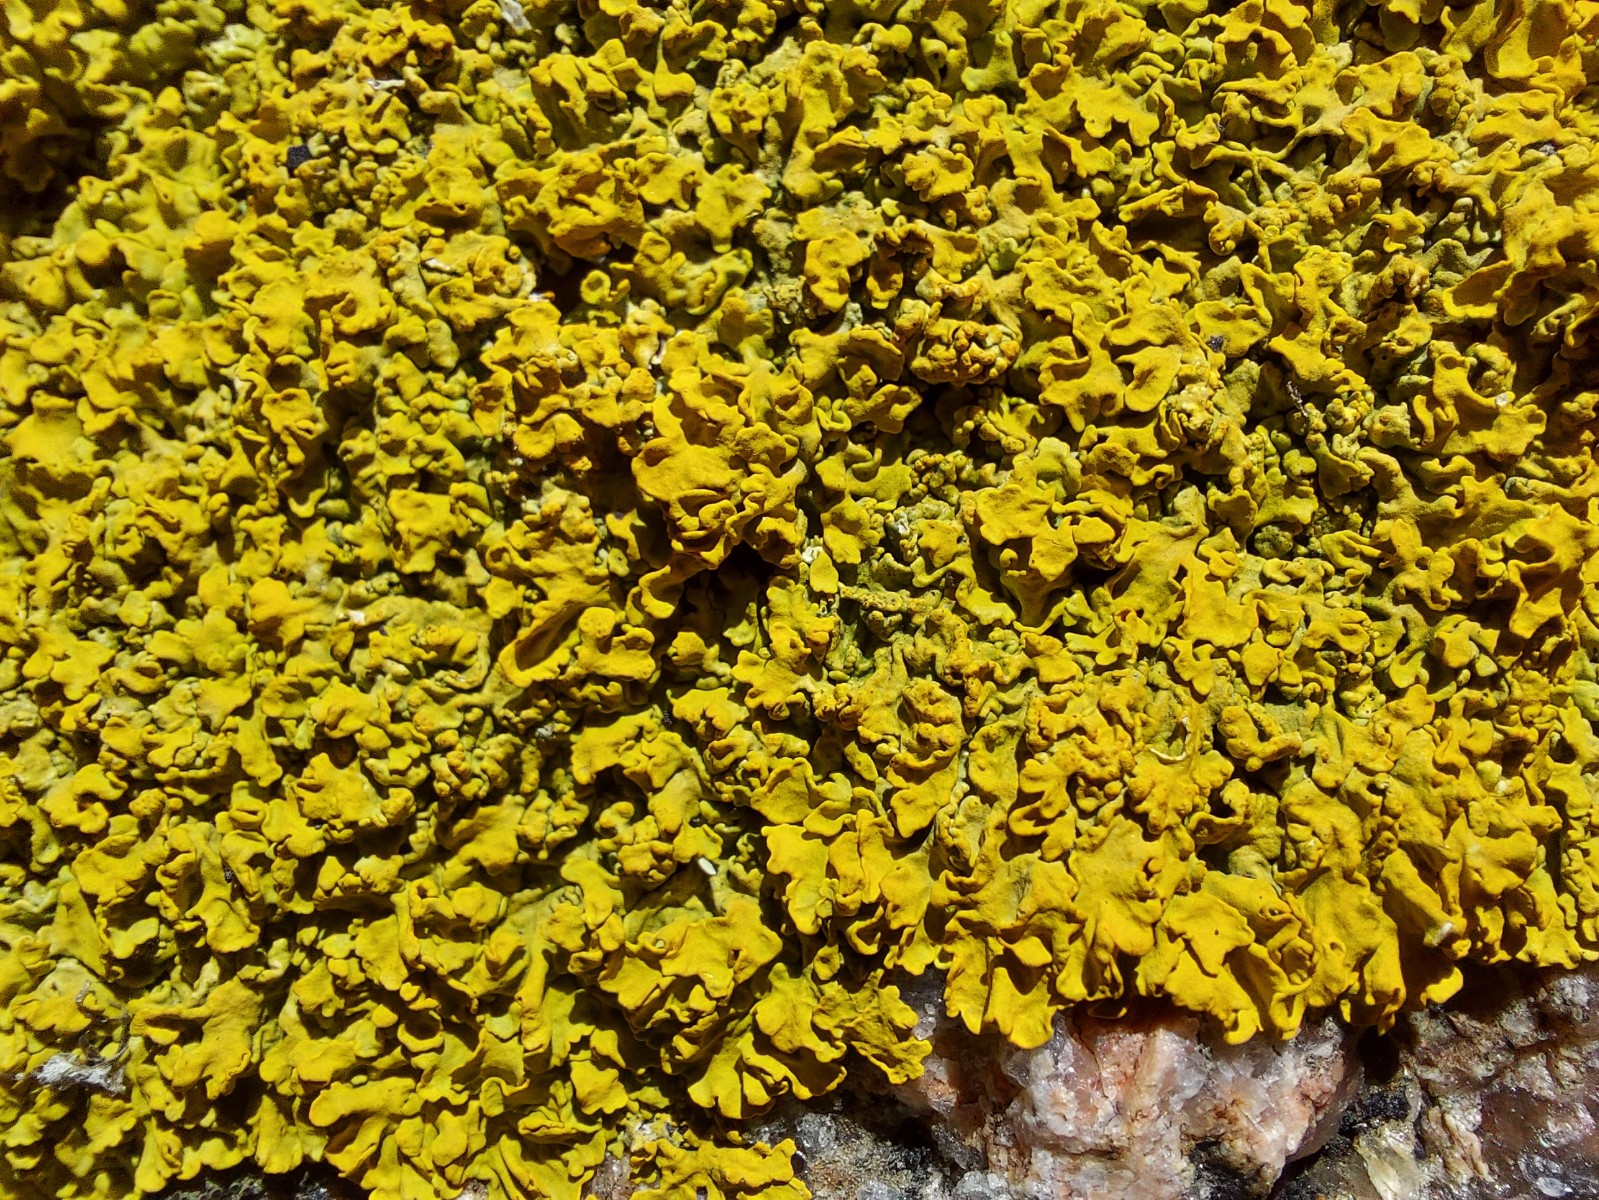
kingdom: Fungi
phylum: Ascomycota
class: Lecanoromycetes
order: Teloschistales
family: Teloschistaceae
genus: Xanthoria
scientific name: Xanthoria aureola
